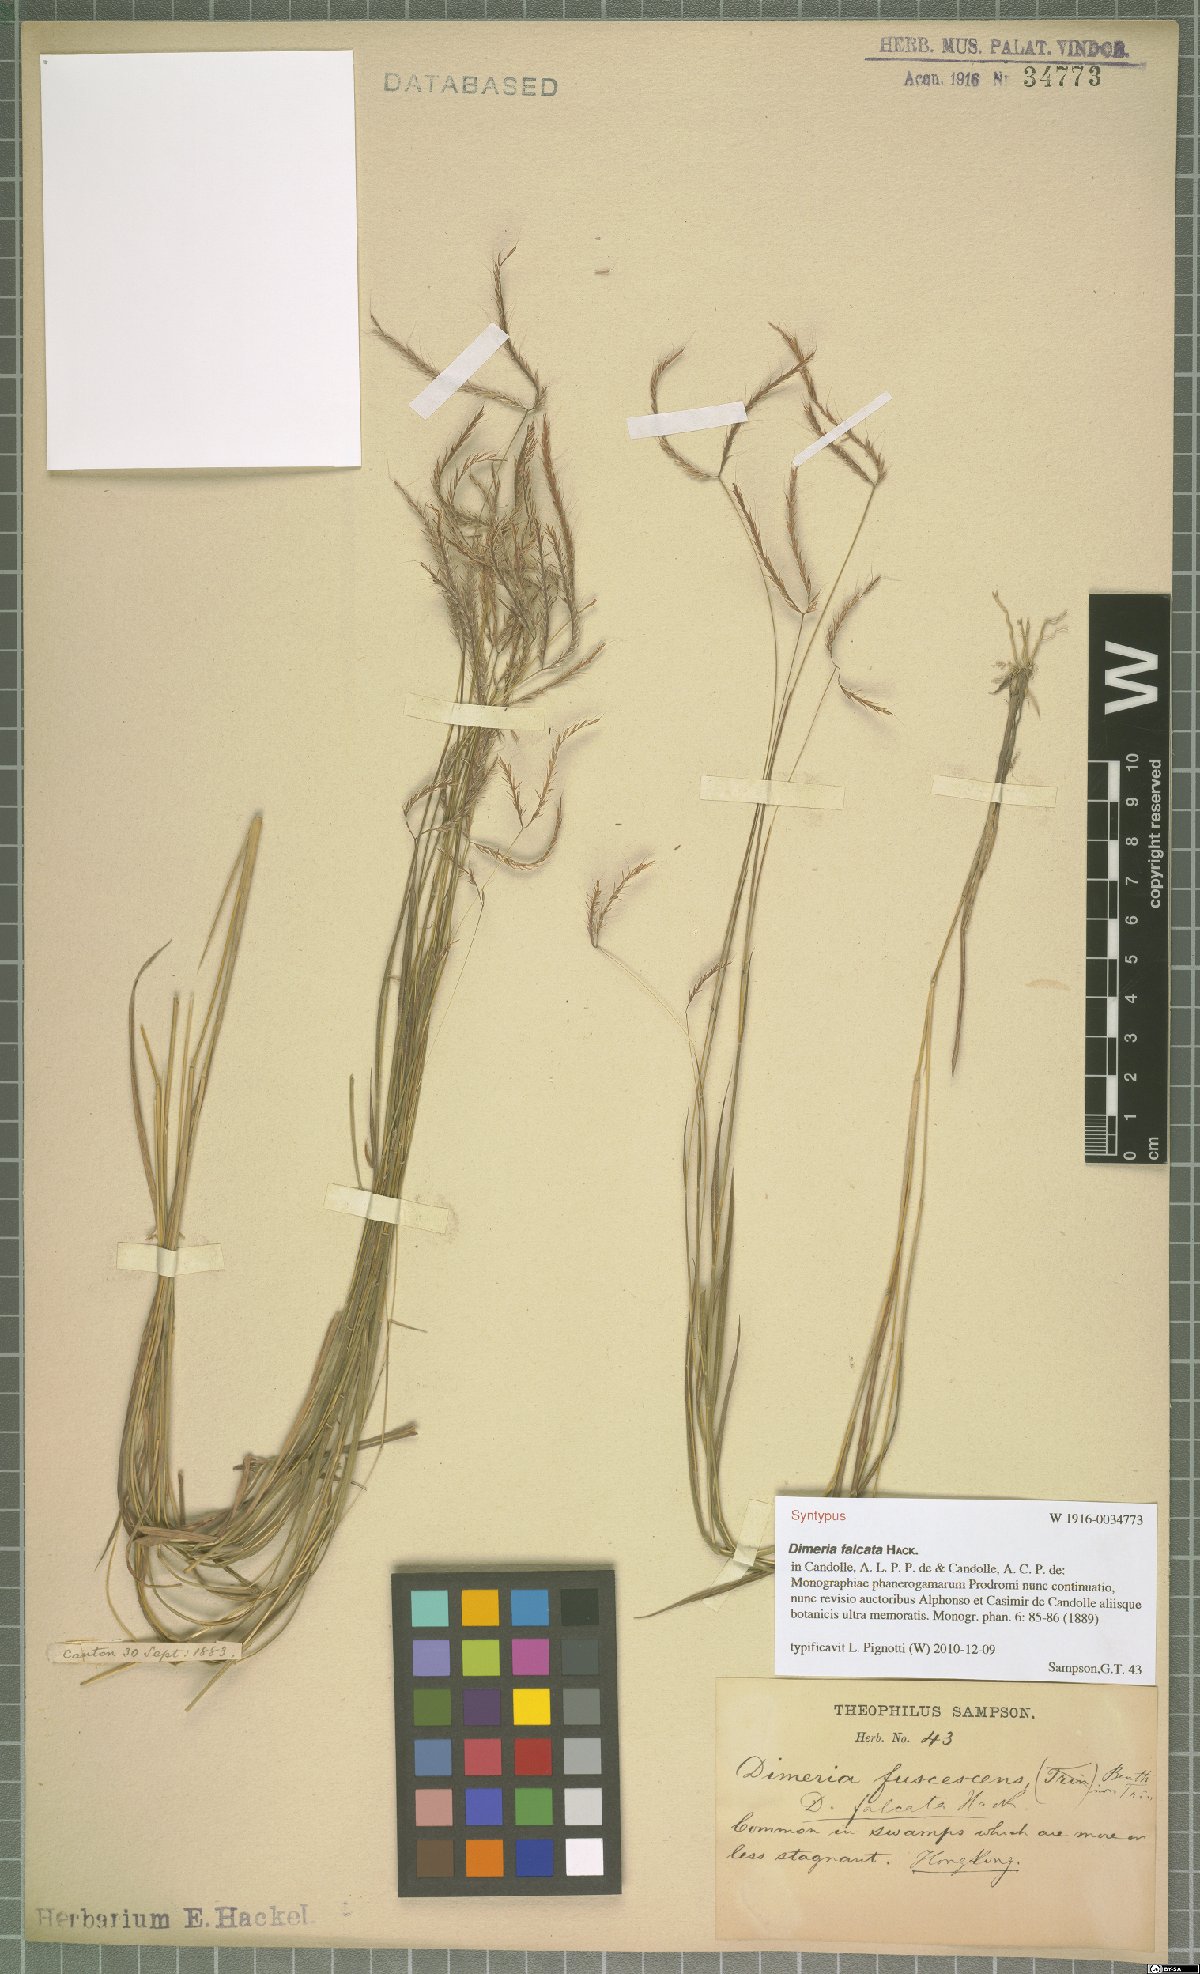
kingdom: Plantae
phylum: Tracheophyta
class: Liliopsida
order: Poales
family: Poaceae
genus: Dimeria
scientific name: Dimeria falcata
